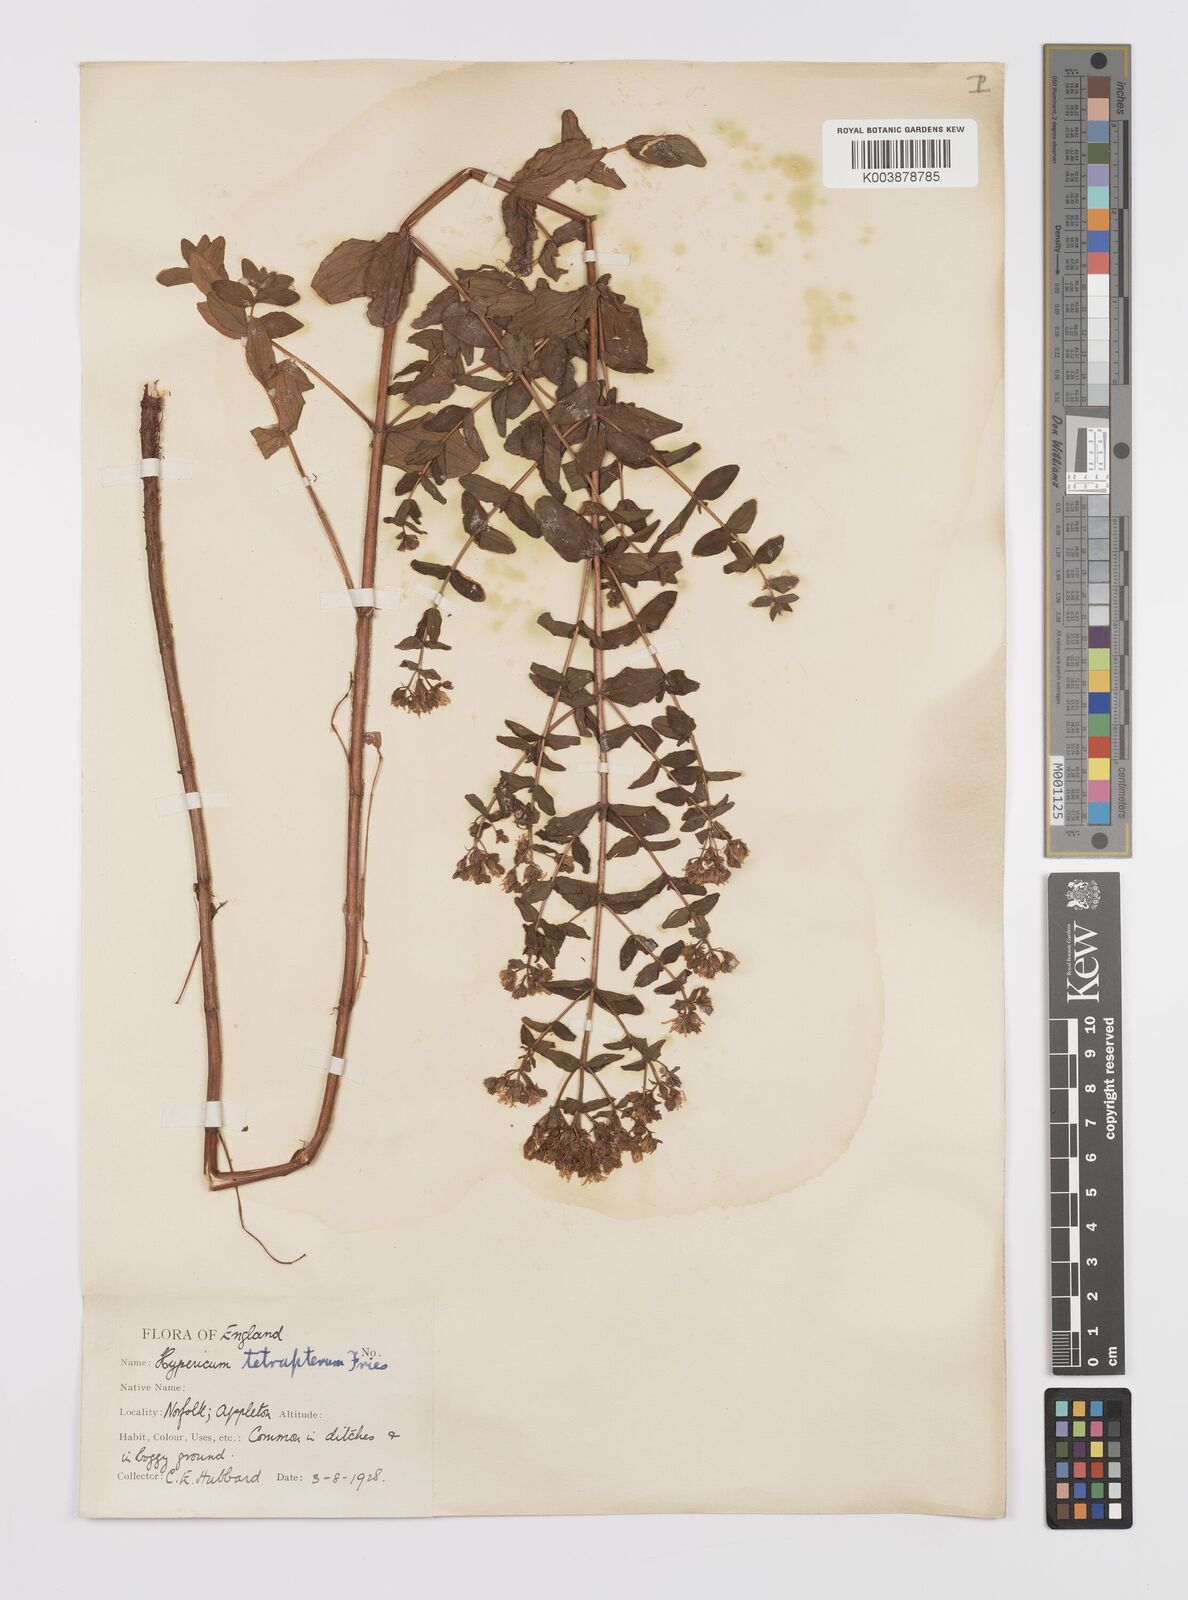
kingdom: Plantae
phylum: Tracheophyta
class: Magnoliopsida
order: Malpighiales
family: Hypericaceae
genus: Hypericum
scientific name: Hypericum tetrapterum
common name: Square-stalked st. john's-wort
